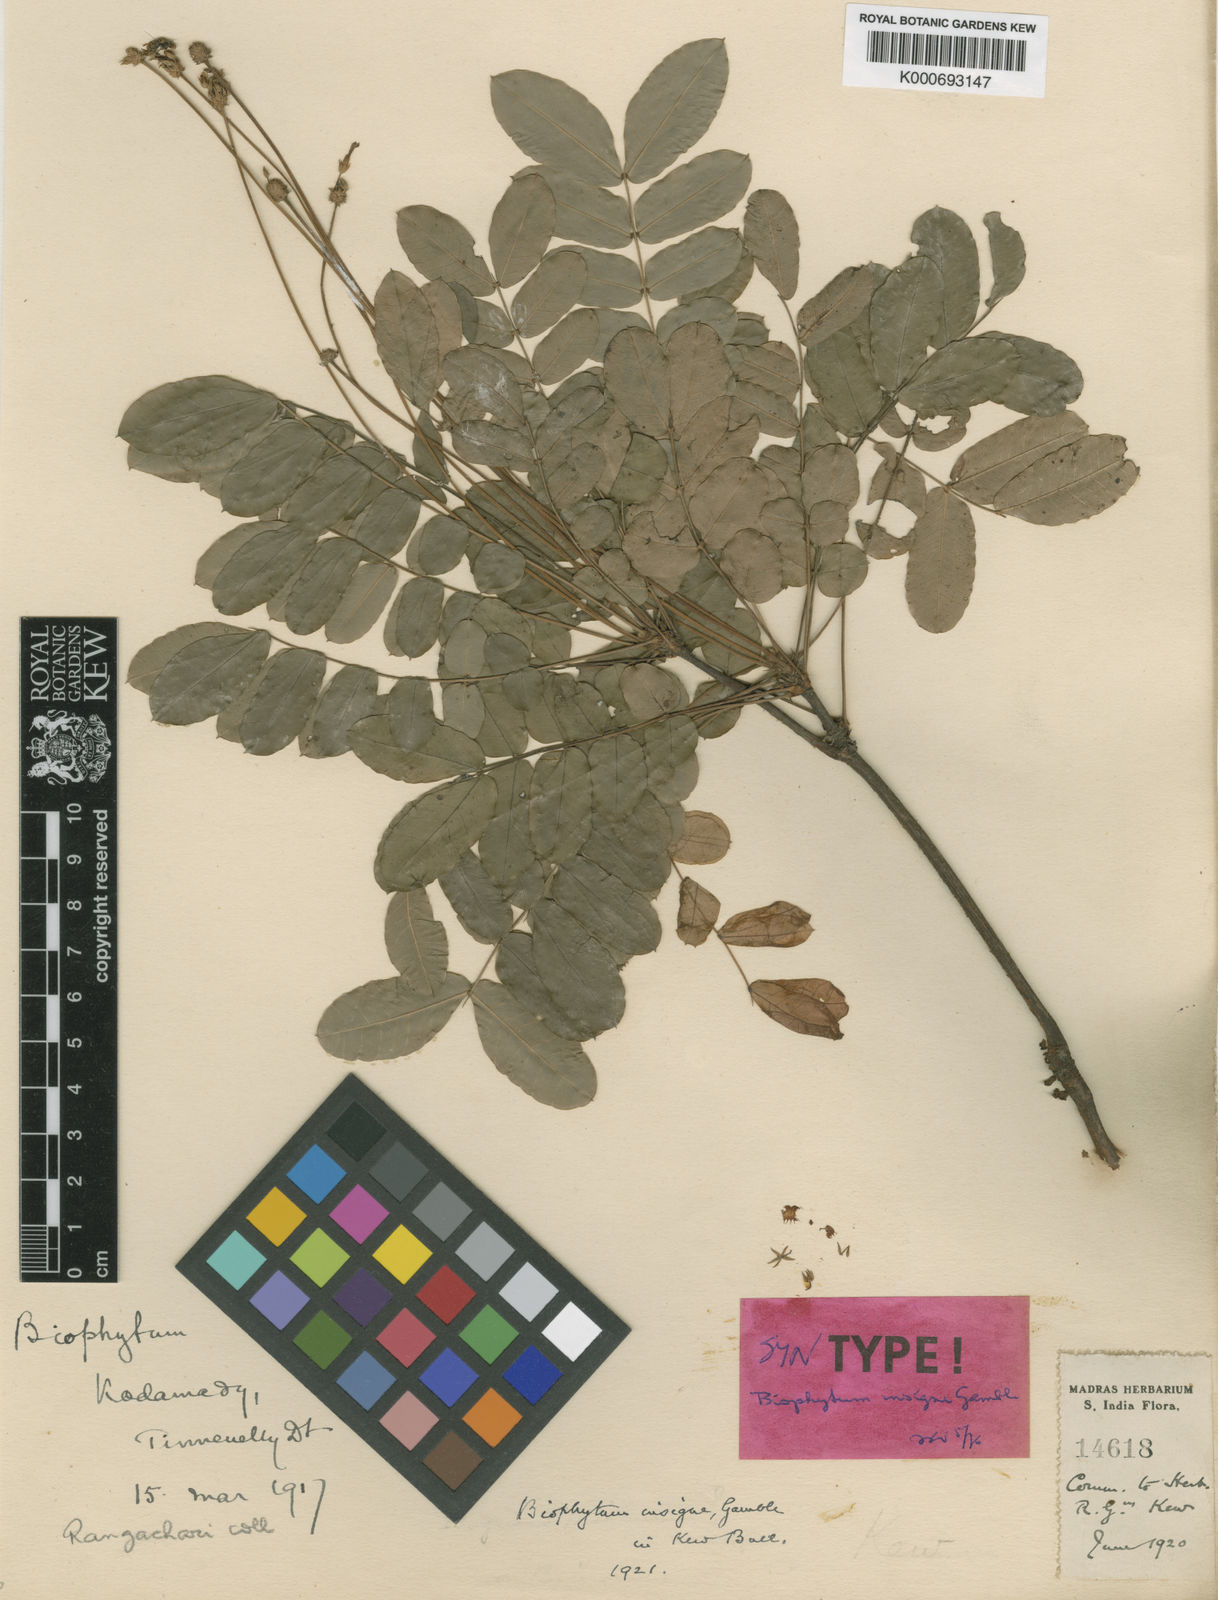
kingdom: Plantae
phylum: Tracheophyta
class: Magnoliopsida
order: Oxalidales
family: Oxalidaceae
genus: Biophytum
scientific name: Biophytum insigne
